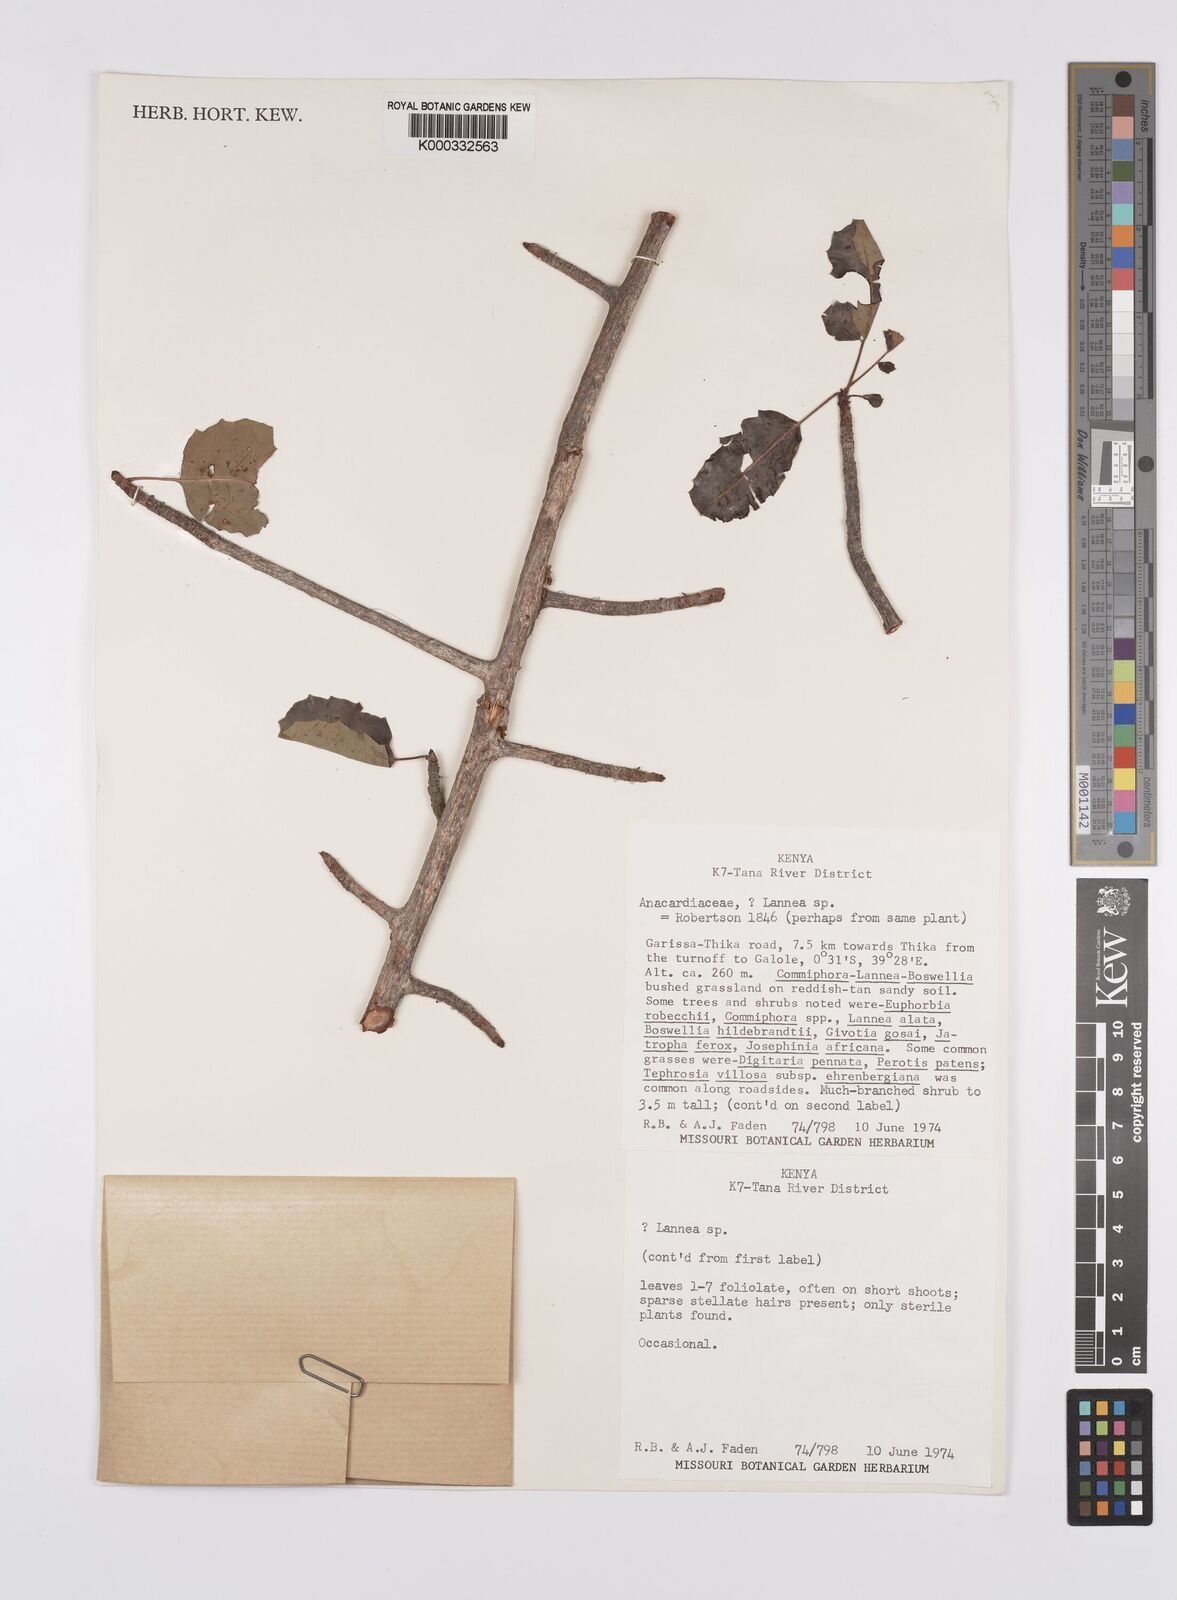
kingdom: Plantae
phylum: Tracheophyta
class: Magnoliopsida
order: Sapindales
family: Anacardiaceae
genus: Sclerocarya
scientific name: Sclerocarya gillettii
